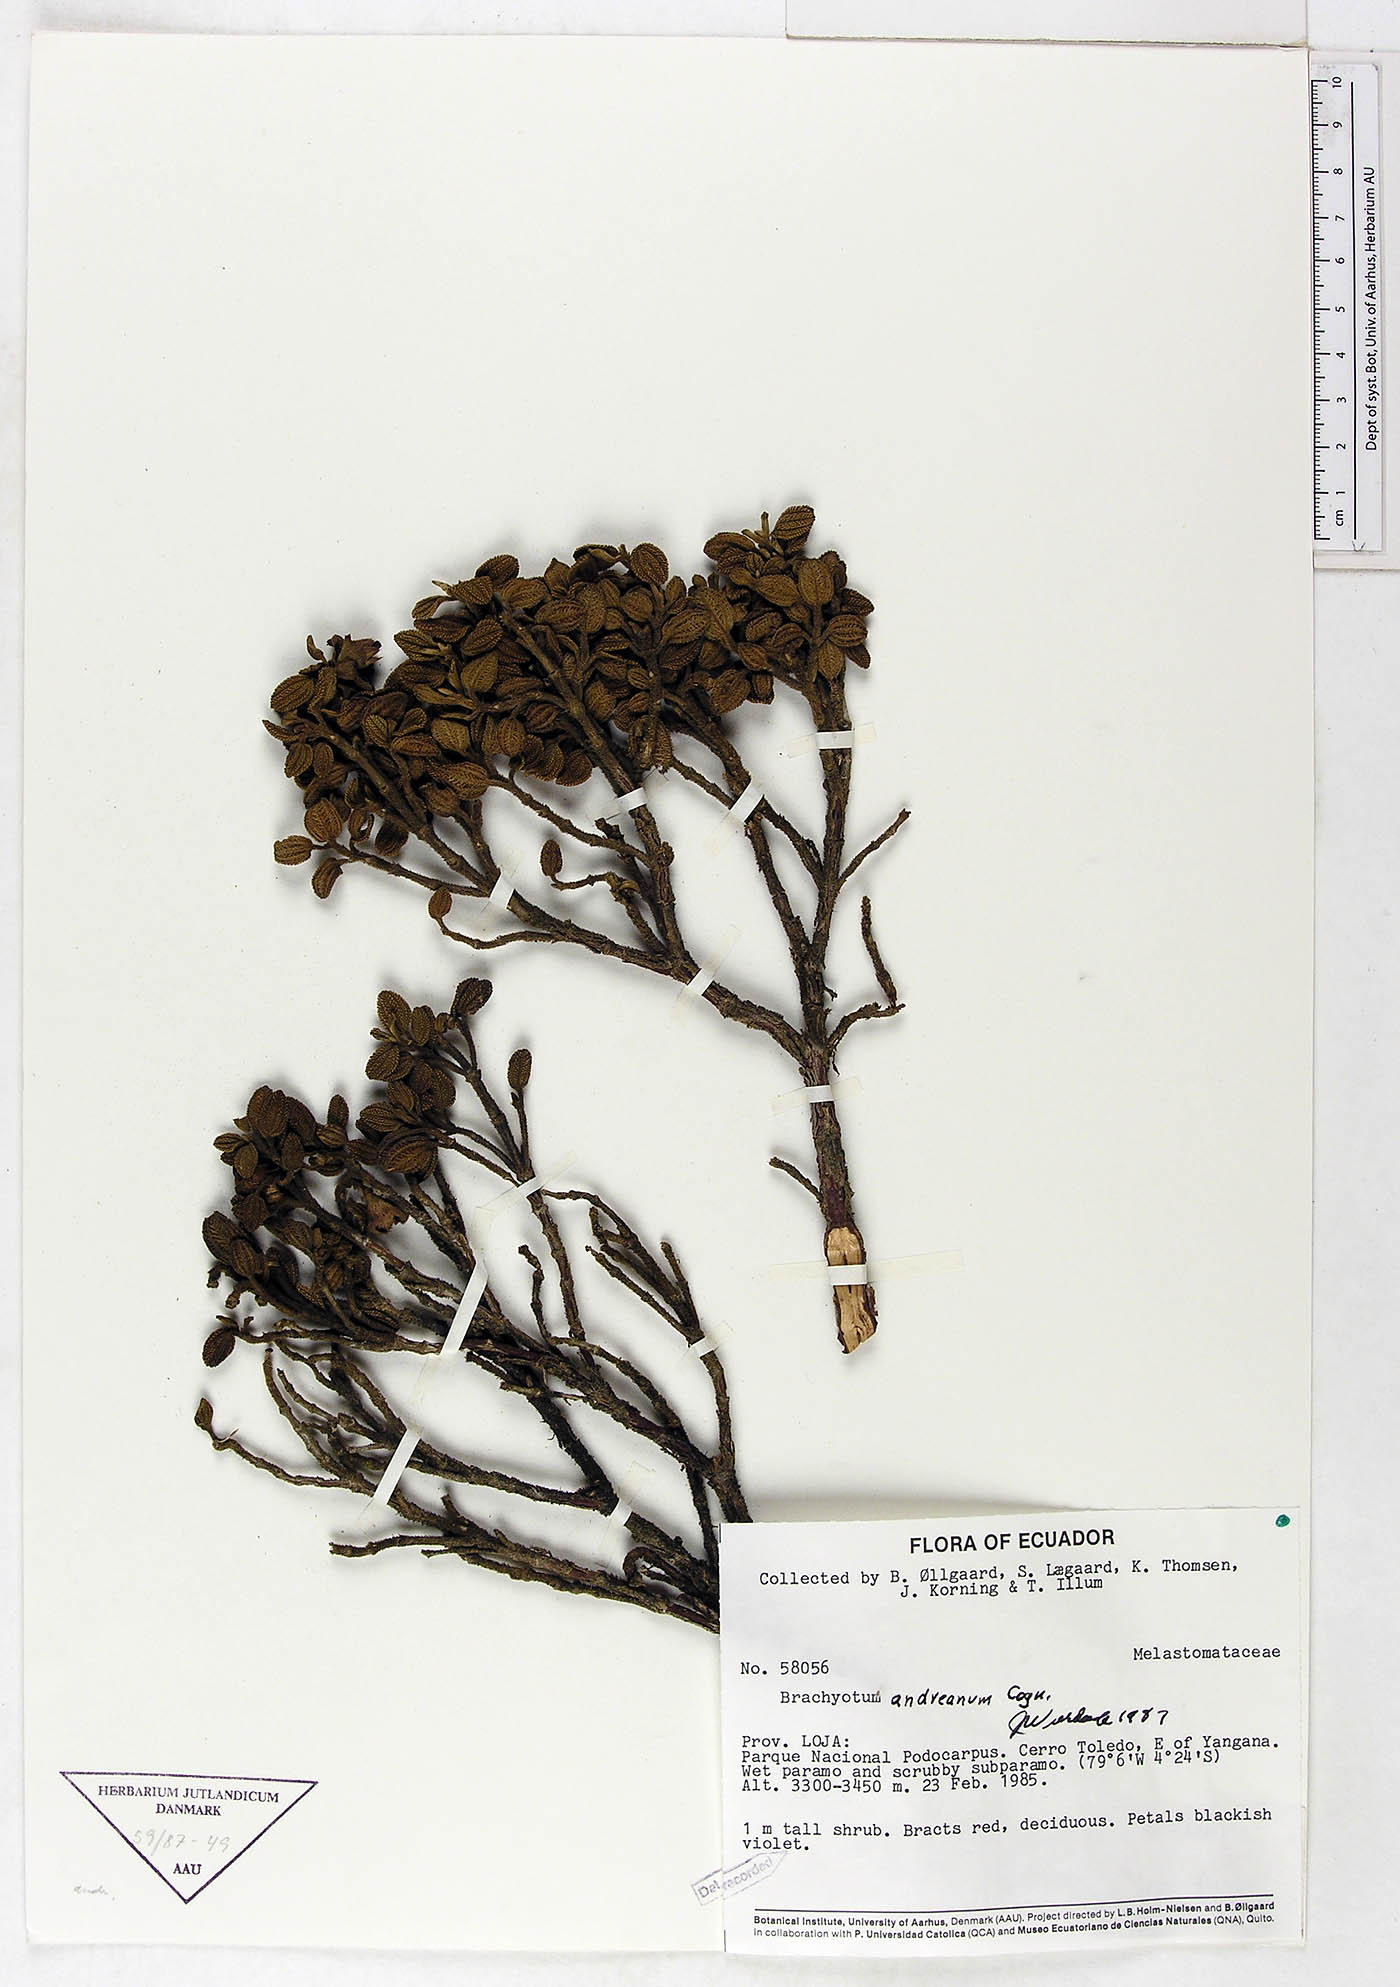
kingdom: Plantae
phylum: Tracheophyta
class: Magnoliopsida
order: Myrtales
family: Melastomataceae
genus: Brachyotum
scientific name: Brachyotum andreanum
